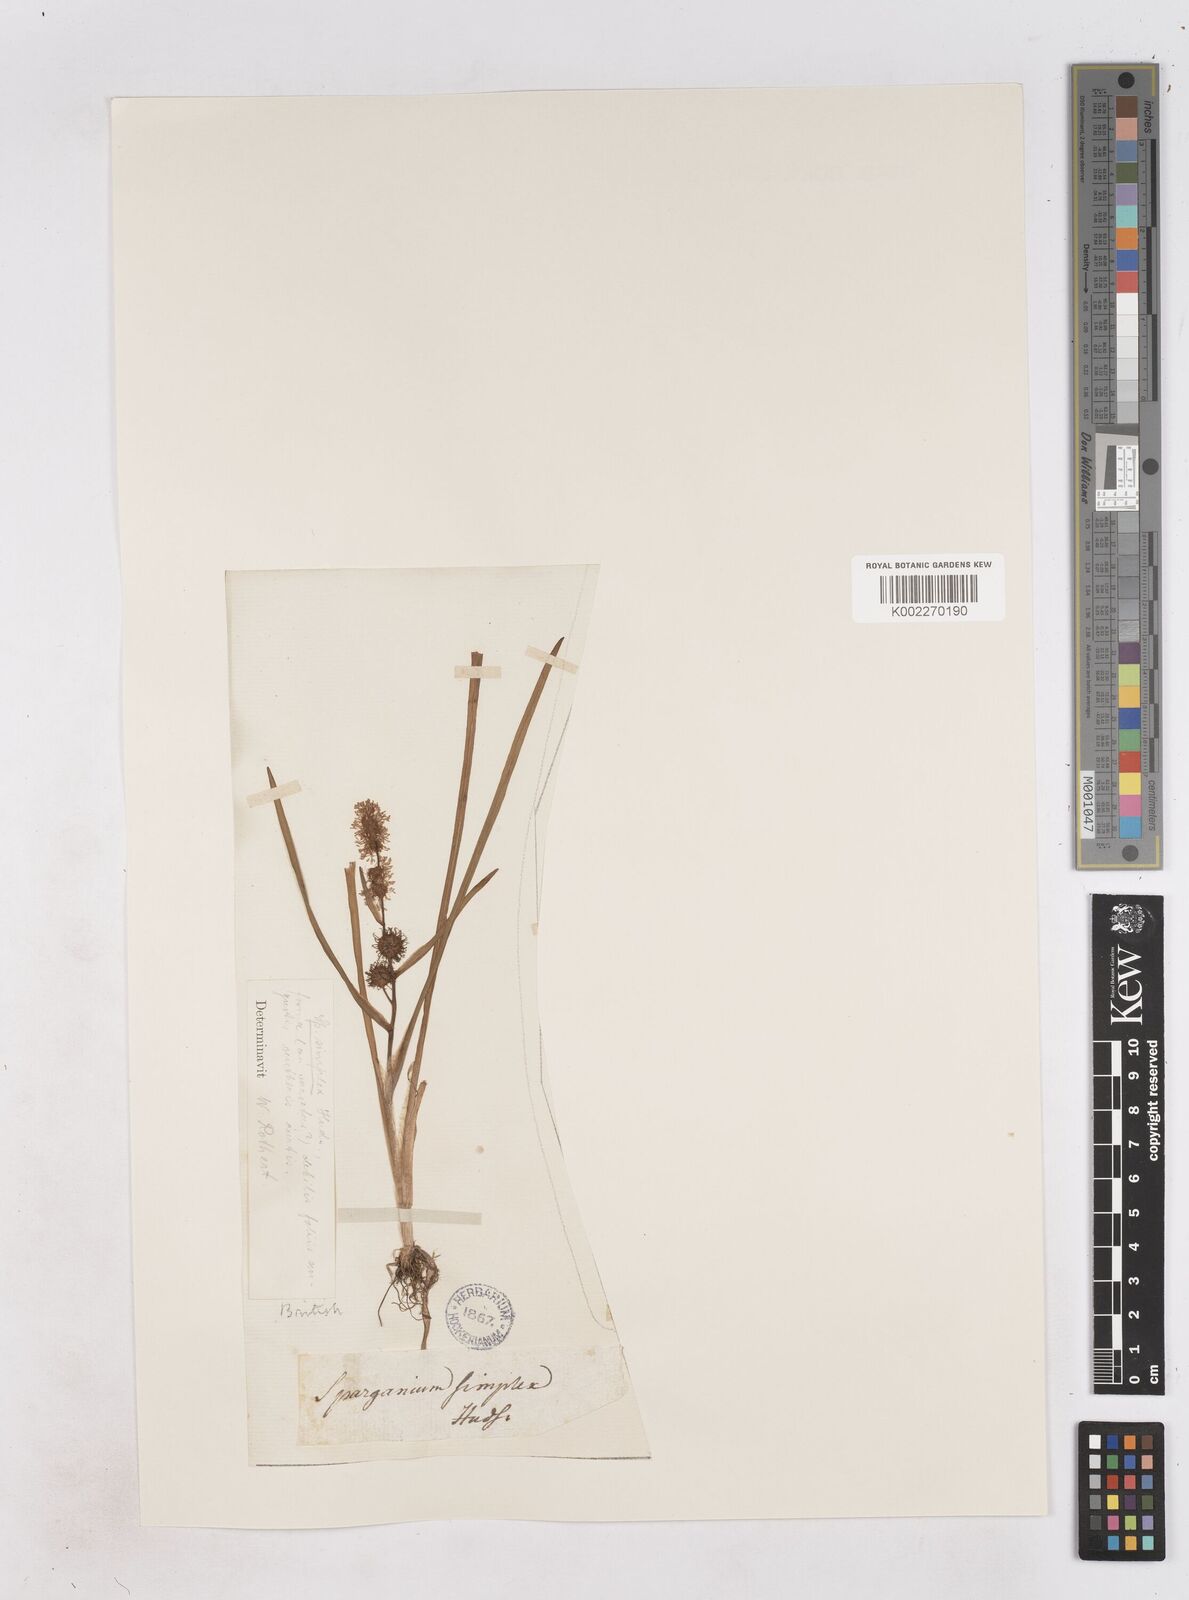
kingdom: Plantae
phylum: Tracheophyta
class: Liliopsida
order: Poales
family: Typhaceae
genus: Sparganium
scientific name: Sparganium emersum
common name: Unbranched bur-reed
